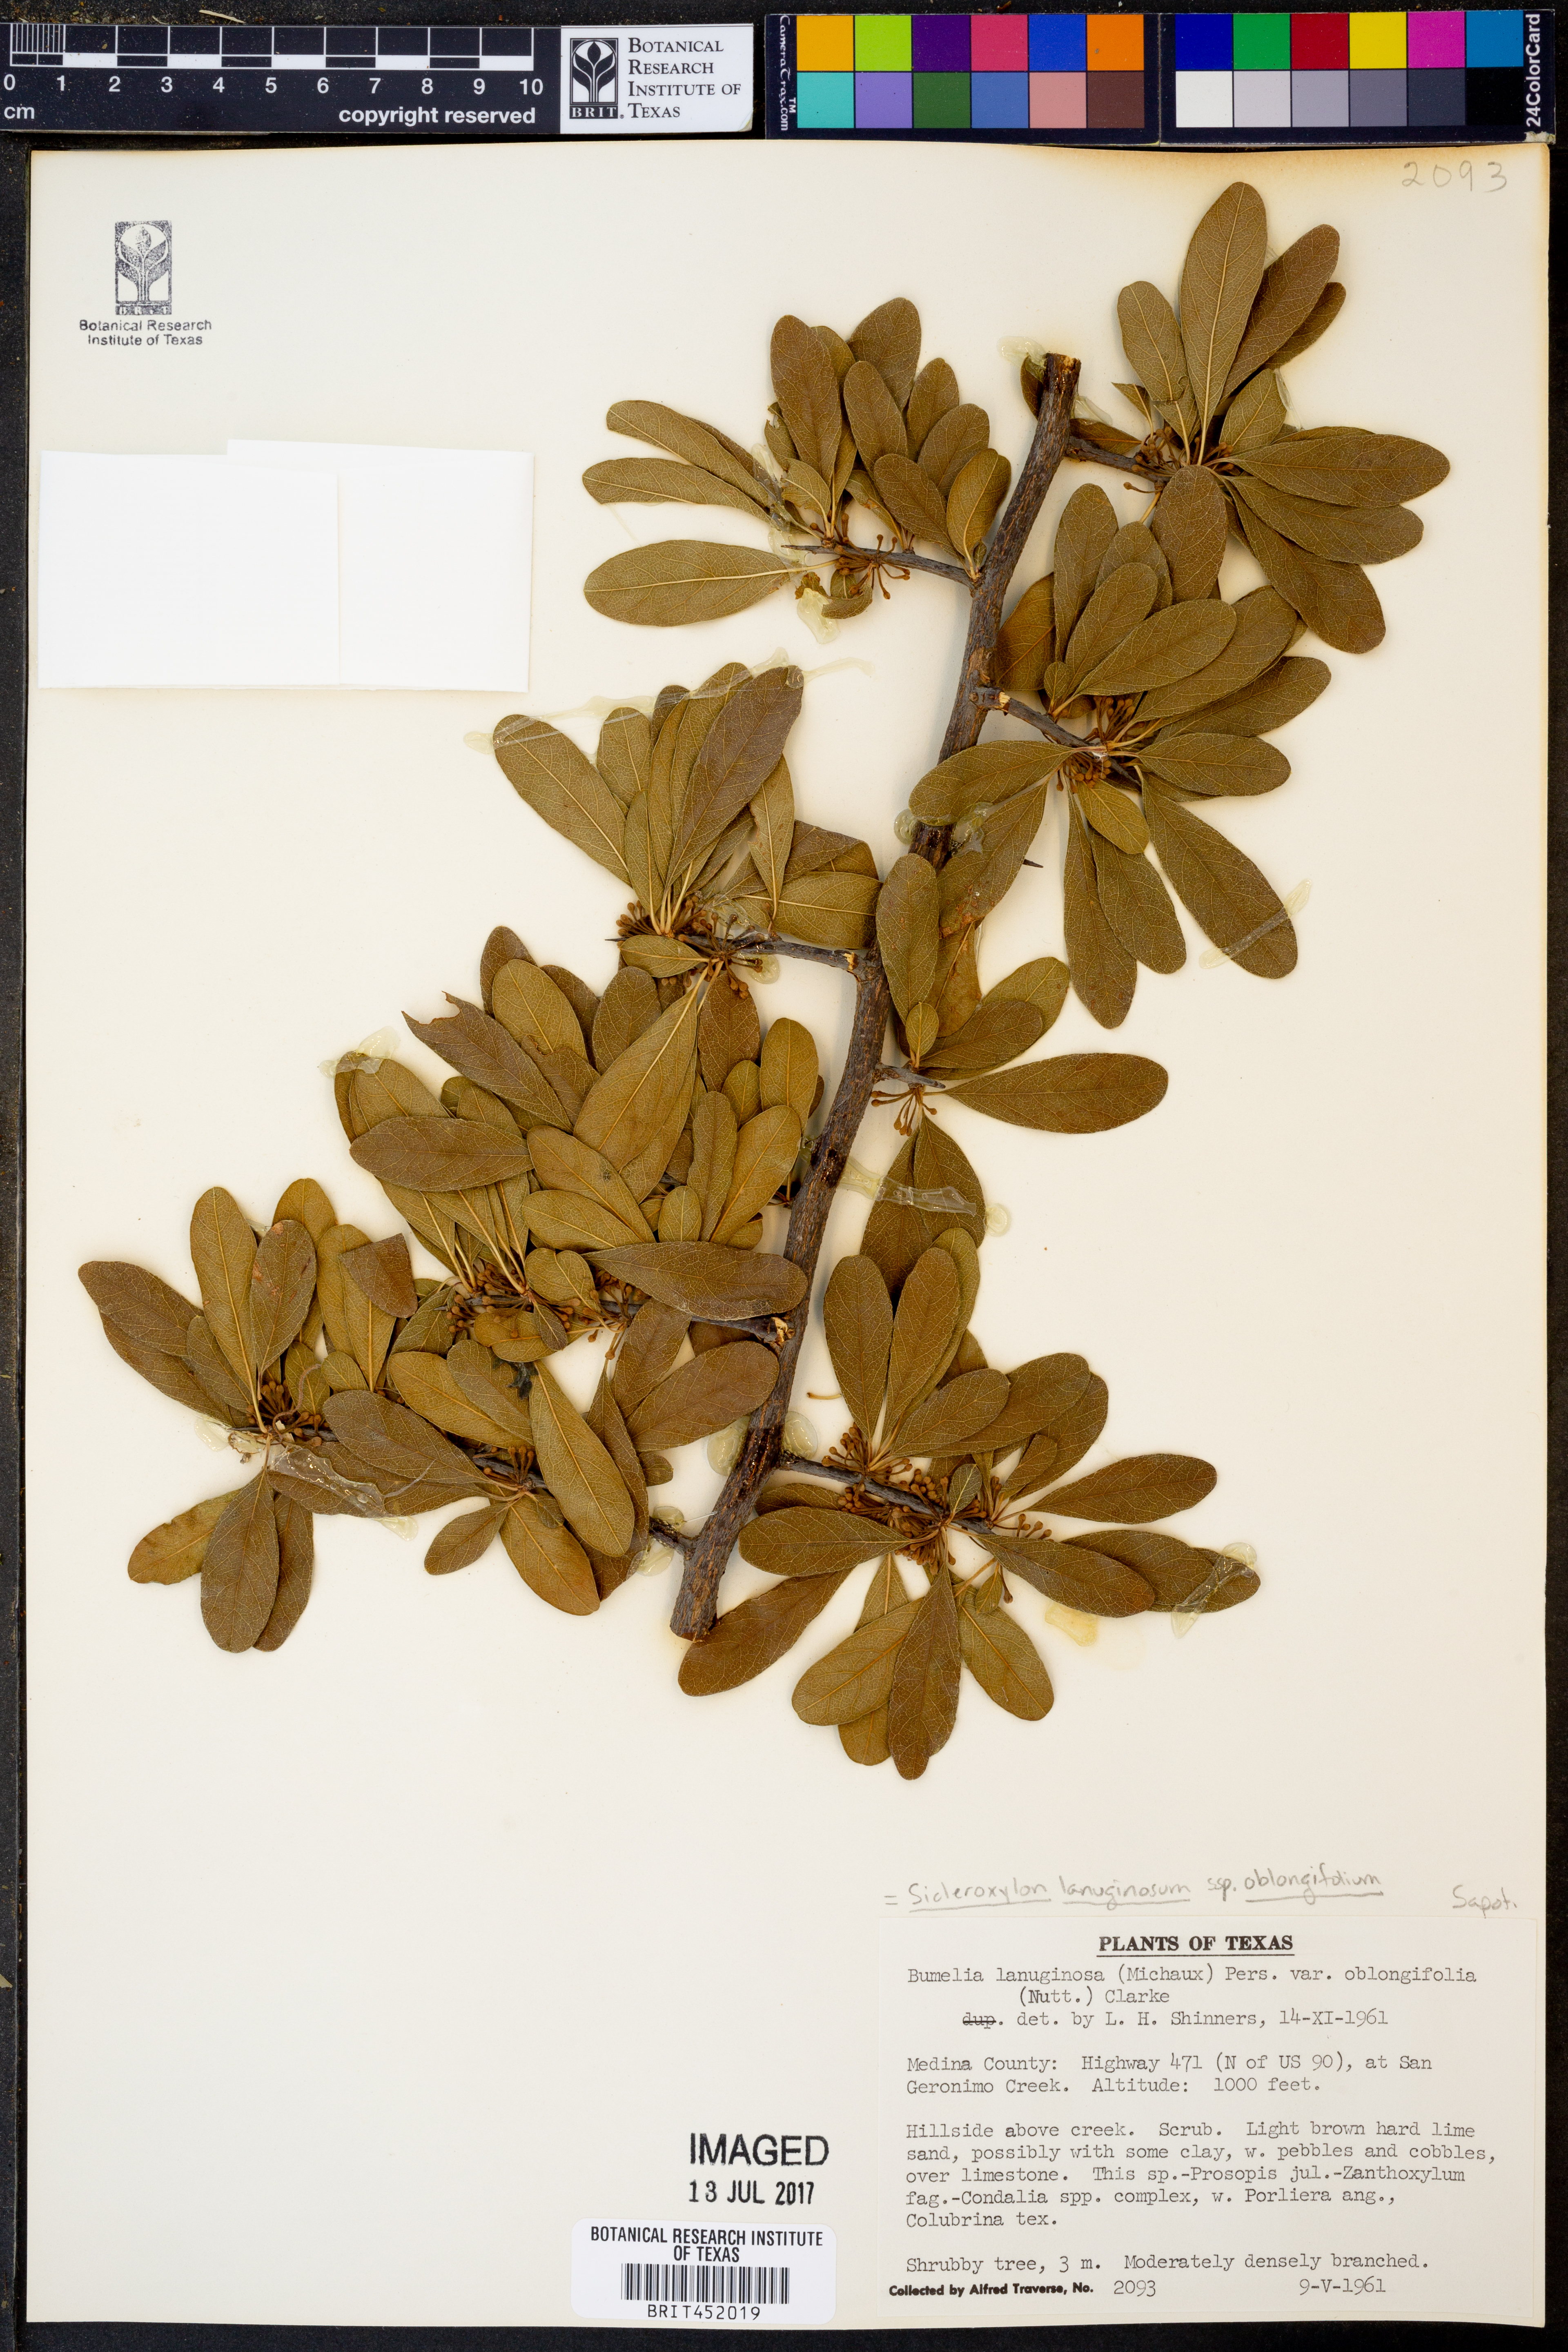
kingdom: Plantae
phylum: Tracheophyta
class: Magnoliopsida
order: Ericales
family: Sapotaceae
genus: Sideroxylon
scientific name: Sideroxylon lanuginosum
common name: Chittamwood
